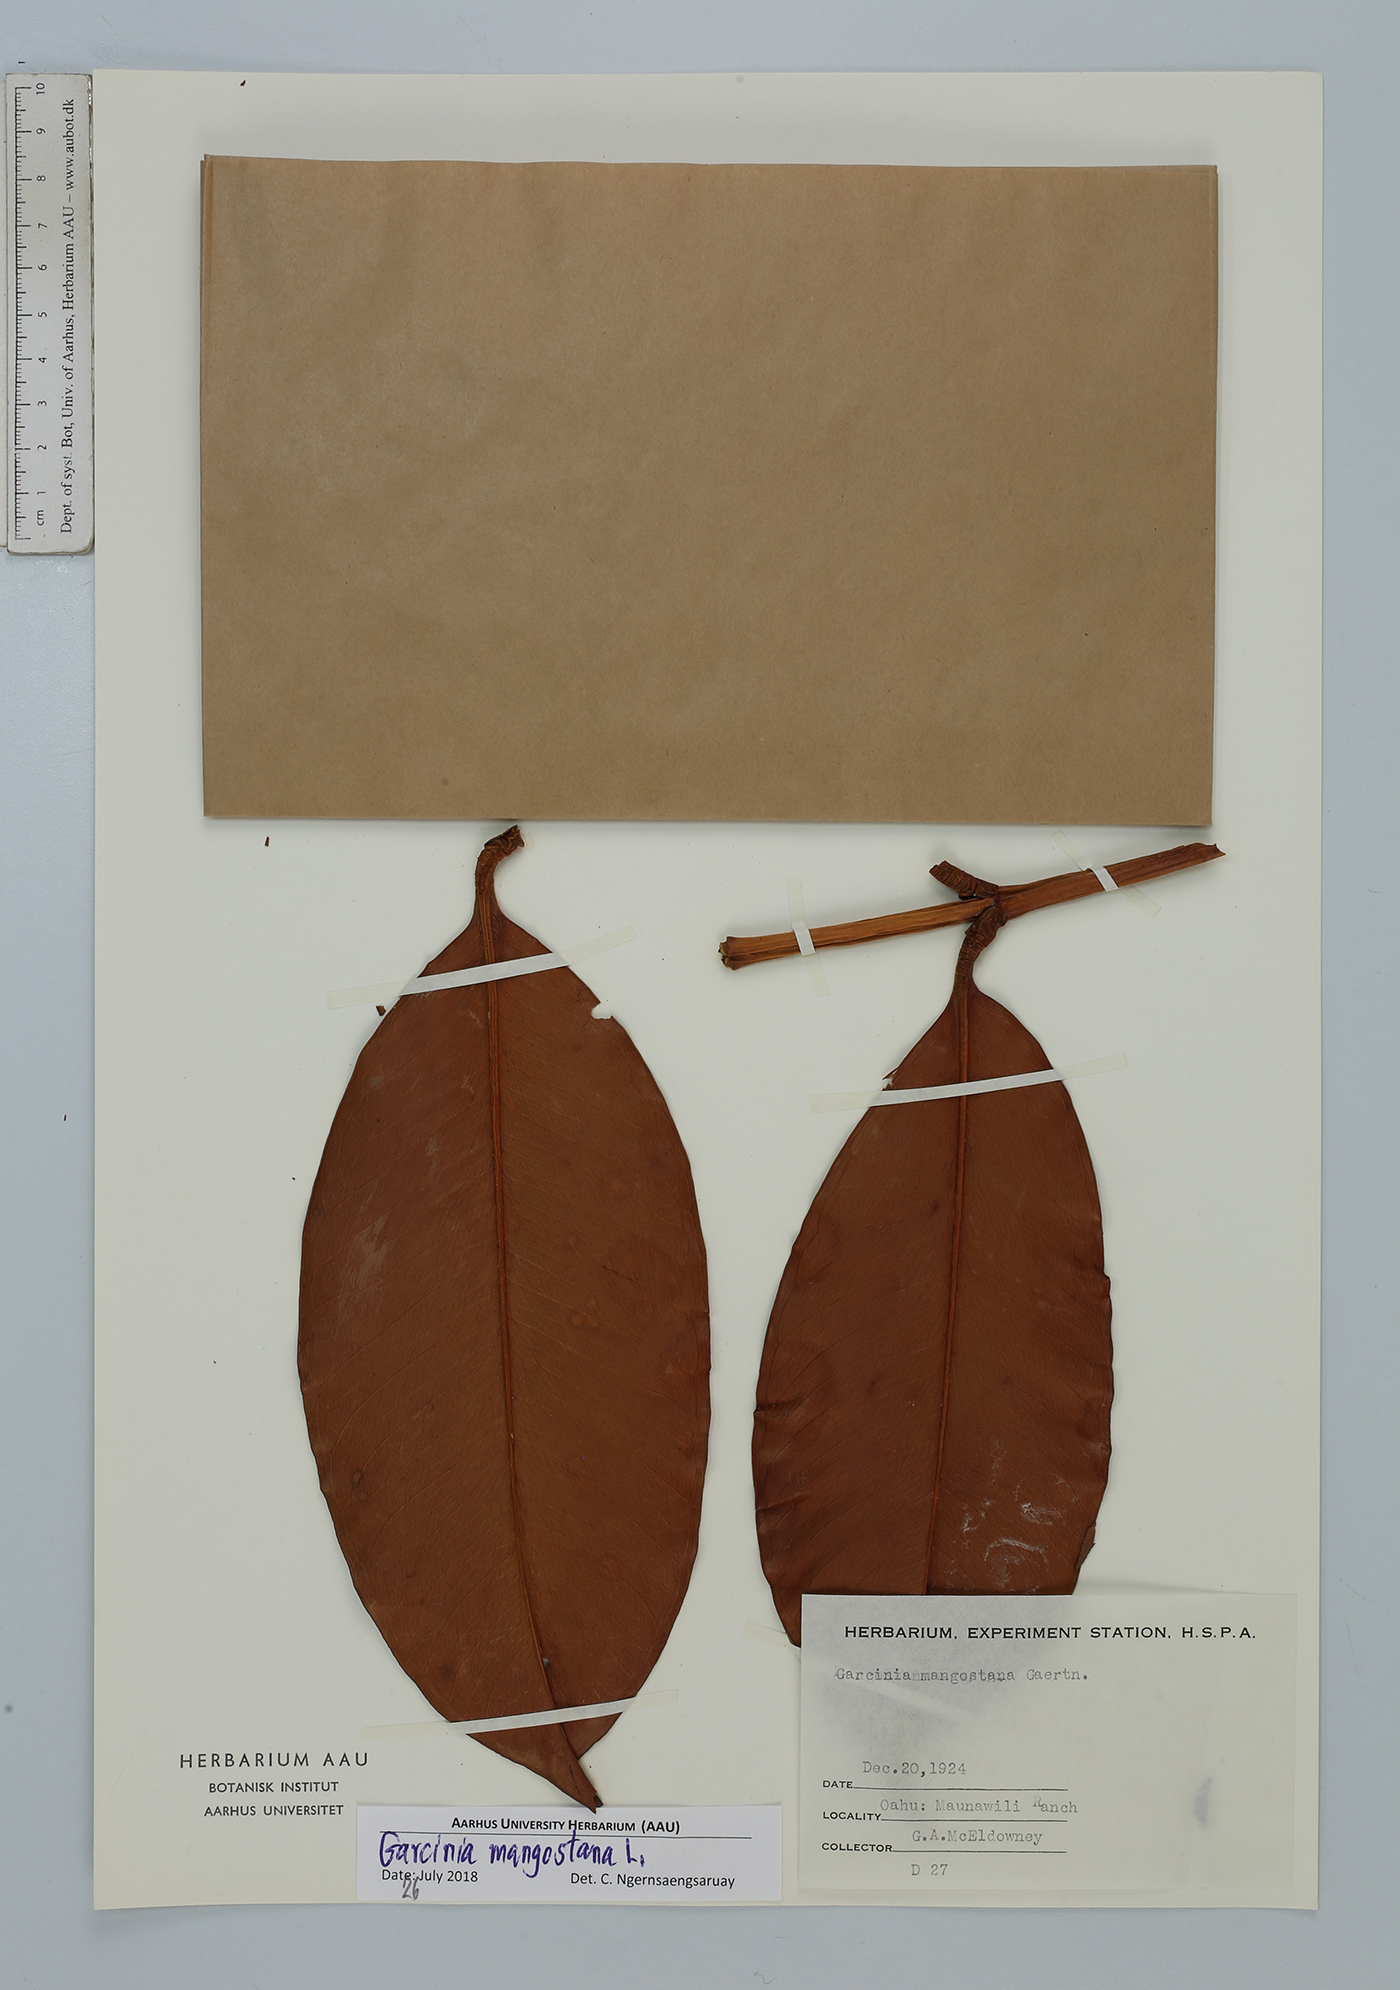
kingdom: Plantae
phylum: Tracheophyta
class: Magnoliopsida
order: Malpighiales
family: Clusiaceae
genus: Garcinia
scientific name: Garcinia mangostana
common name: Mangosteen
